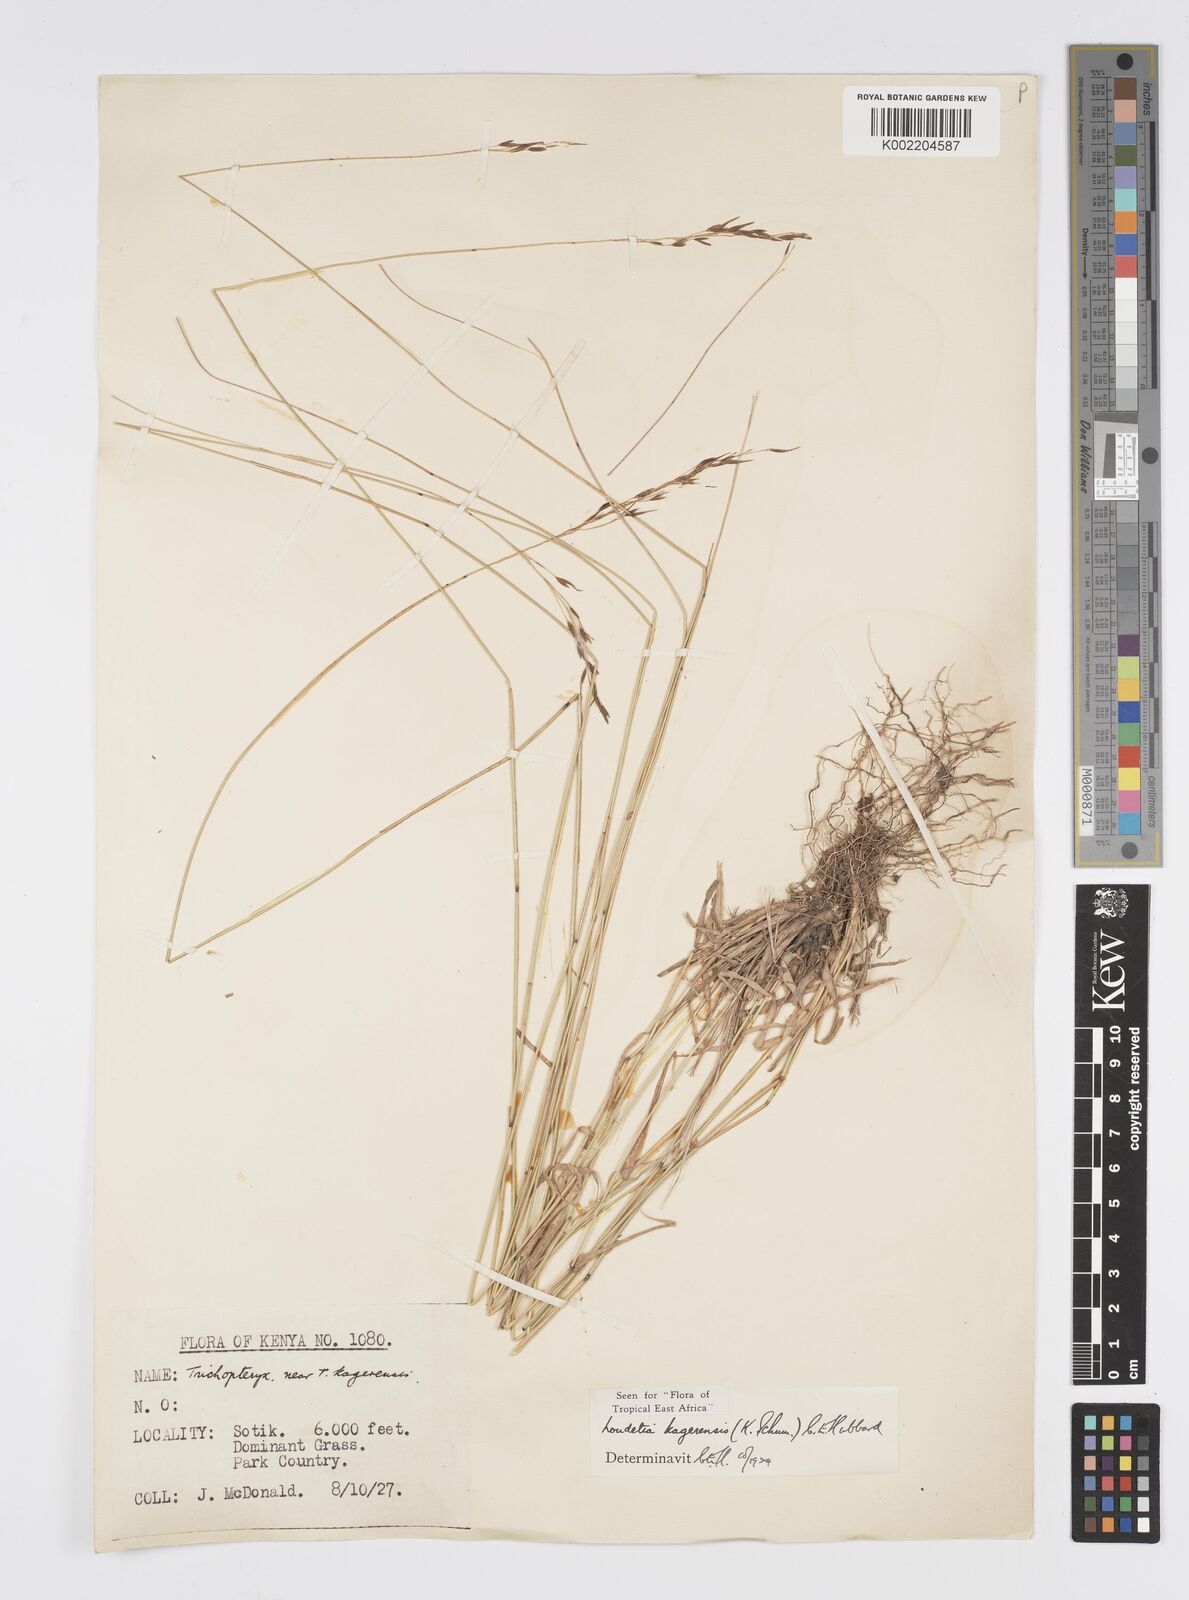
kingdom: Plantae
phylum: Tracheophyta
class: Liliopsida
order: Poales
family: Poaceae
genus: Loudetia
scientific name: Loudetia kagerensis
